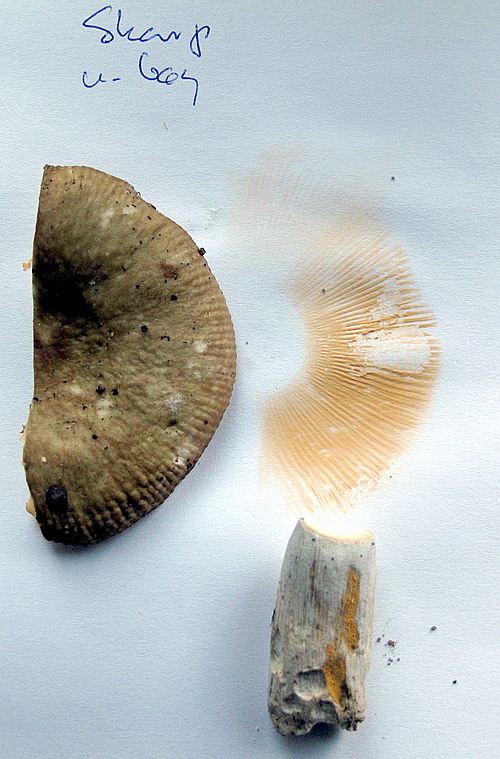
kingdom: Fungi
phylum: Basidiomycota
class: Agaricomycetes
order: Russulales
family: Russulaceae
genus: Russula
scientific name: Russula cuprea
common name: kanel-skørhat
